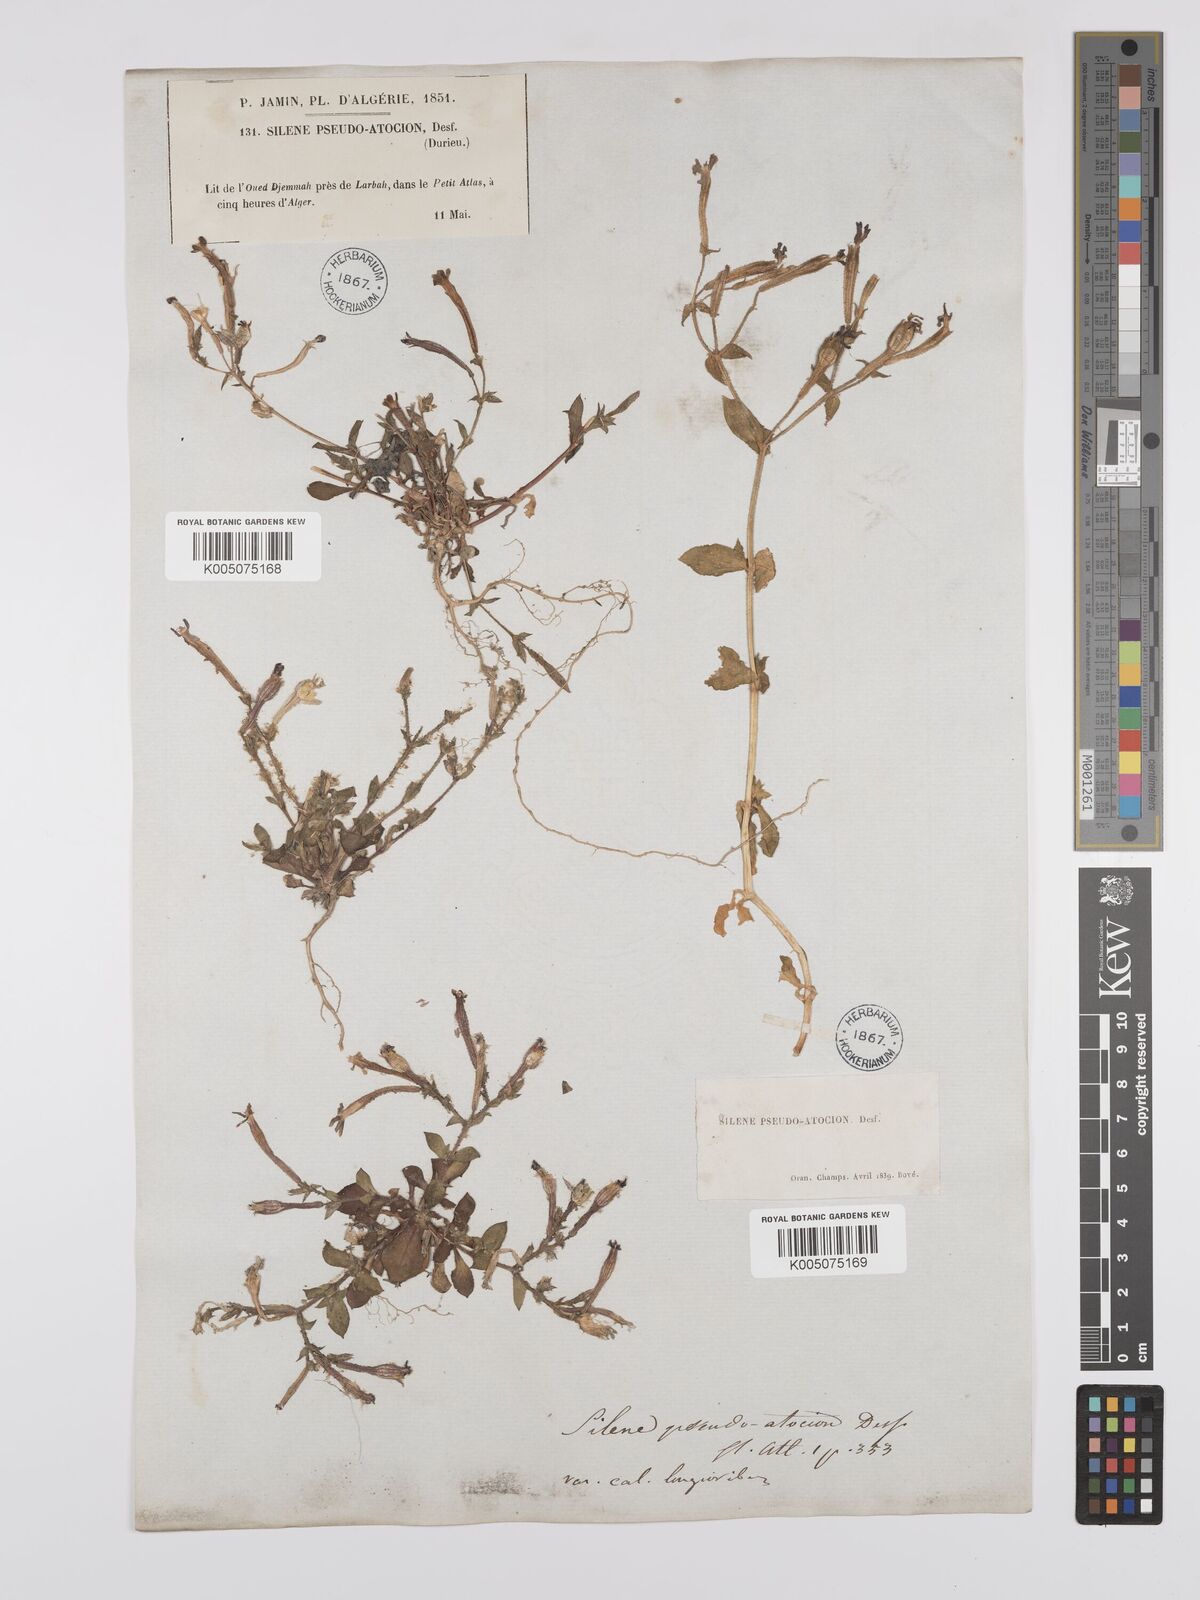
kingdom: Plantae
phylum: Tracheophyta
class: Magnoliopsida
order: Caryophyllales
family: Caryophyllaceae
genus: Silene
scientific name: Silene pseudoatocion
